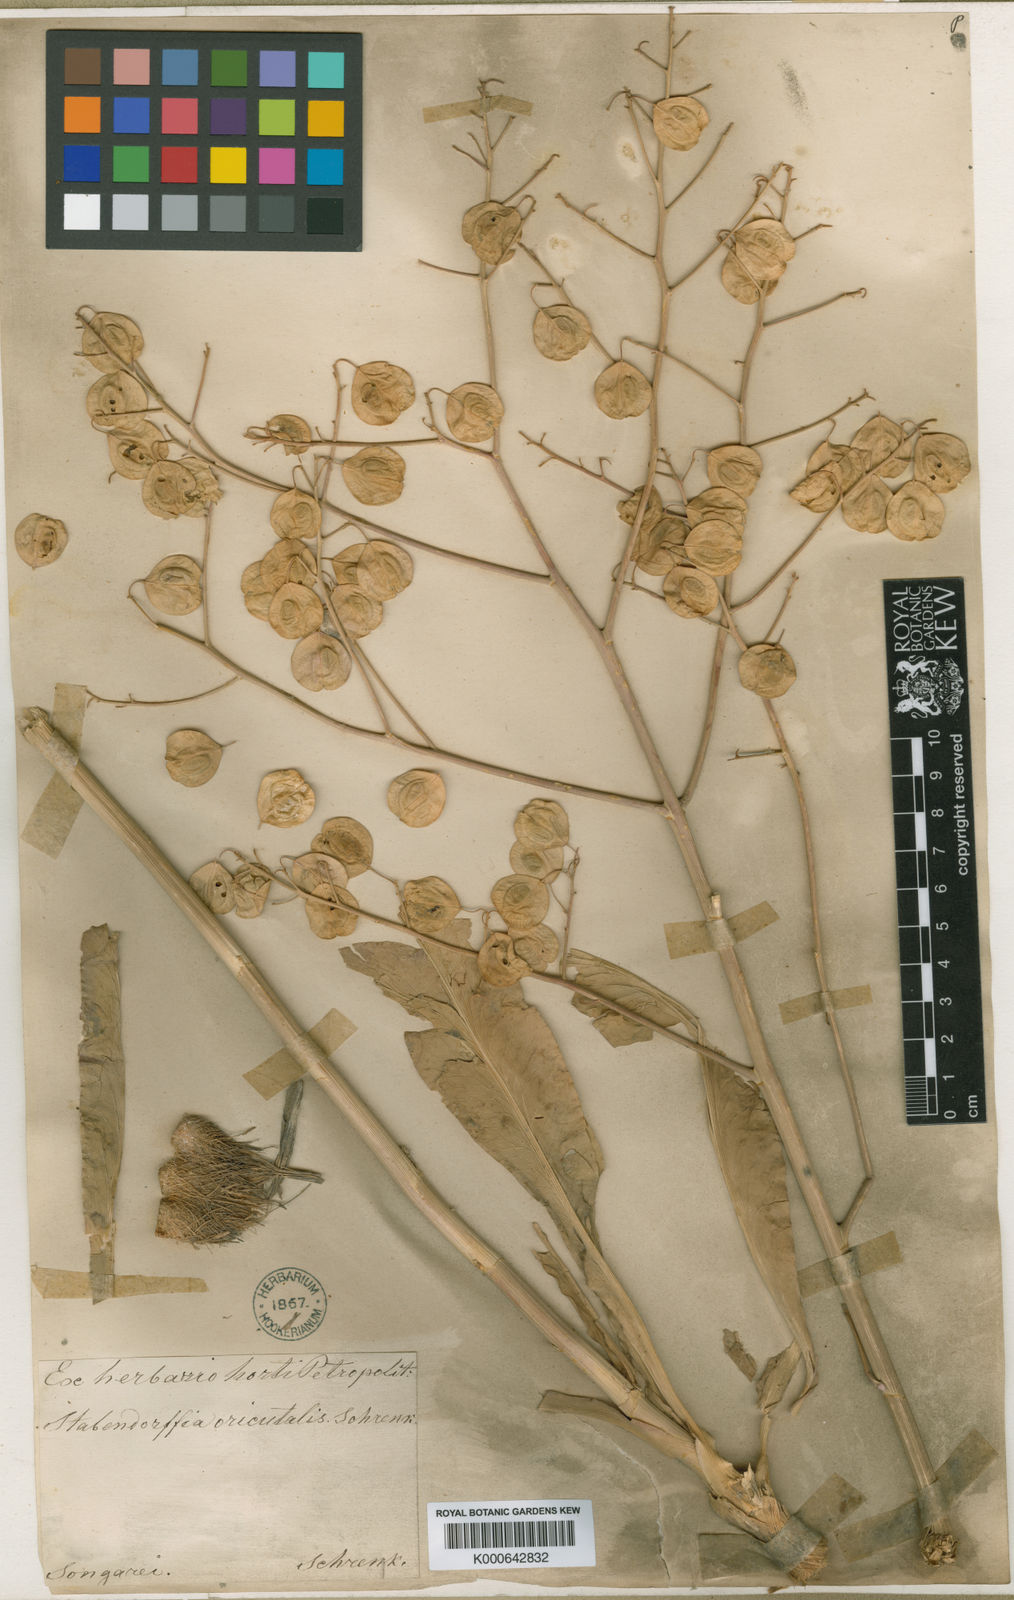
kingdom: Plantae
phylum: Tracheophyta
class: Magnoliopsida
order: Brassicales
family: Brassicaceae
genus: Lepidium
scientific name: Lepidium orientale
